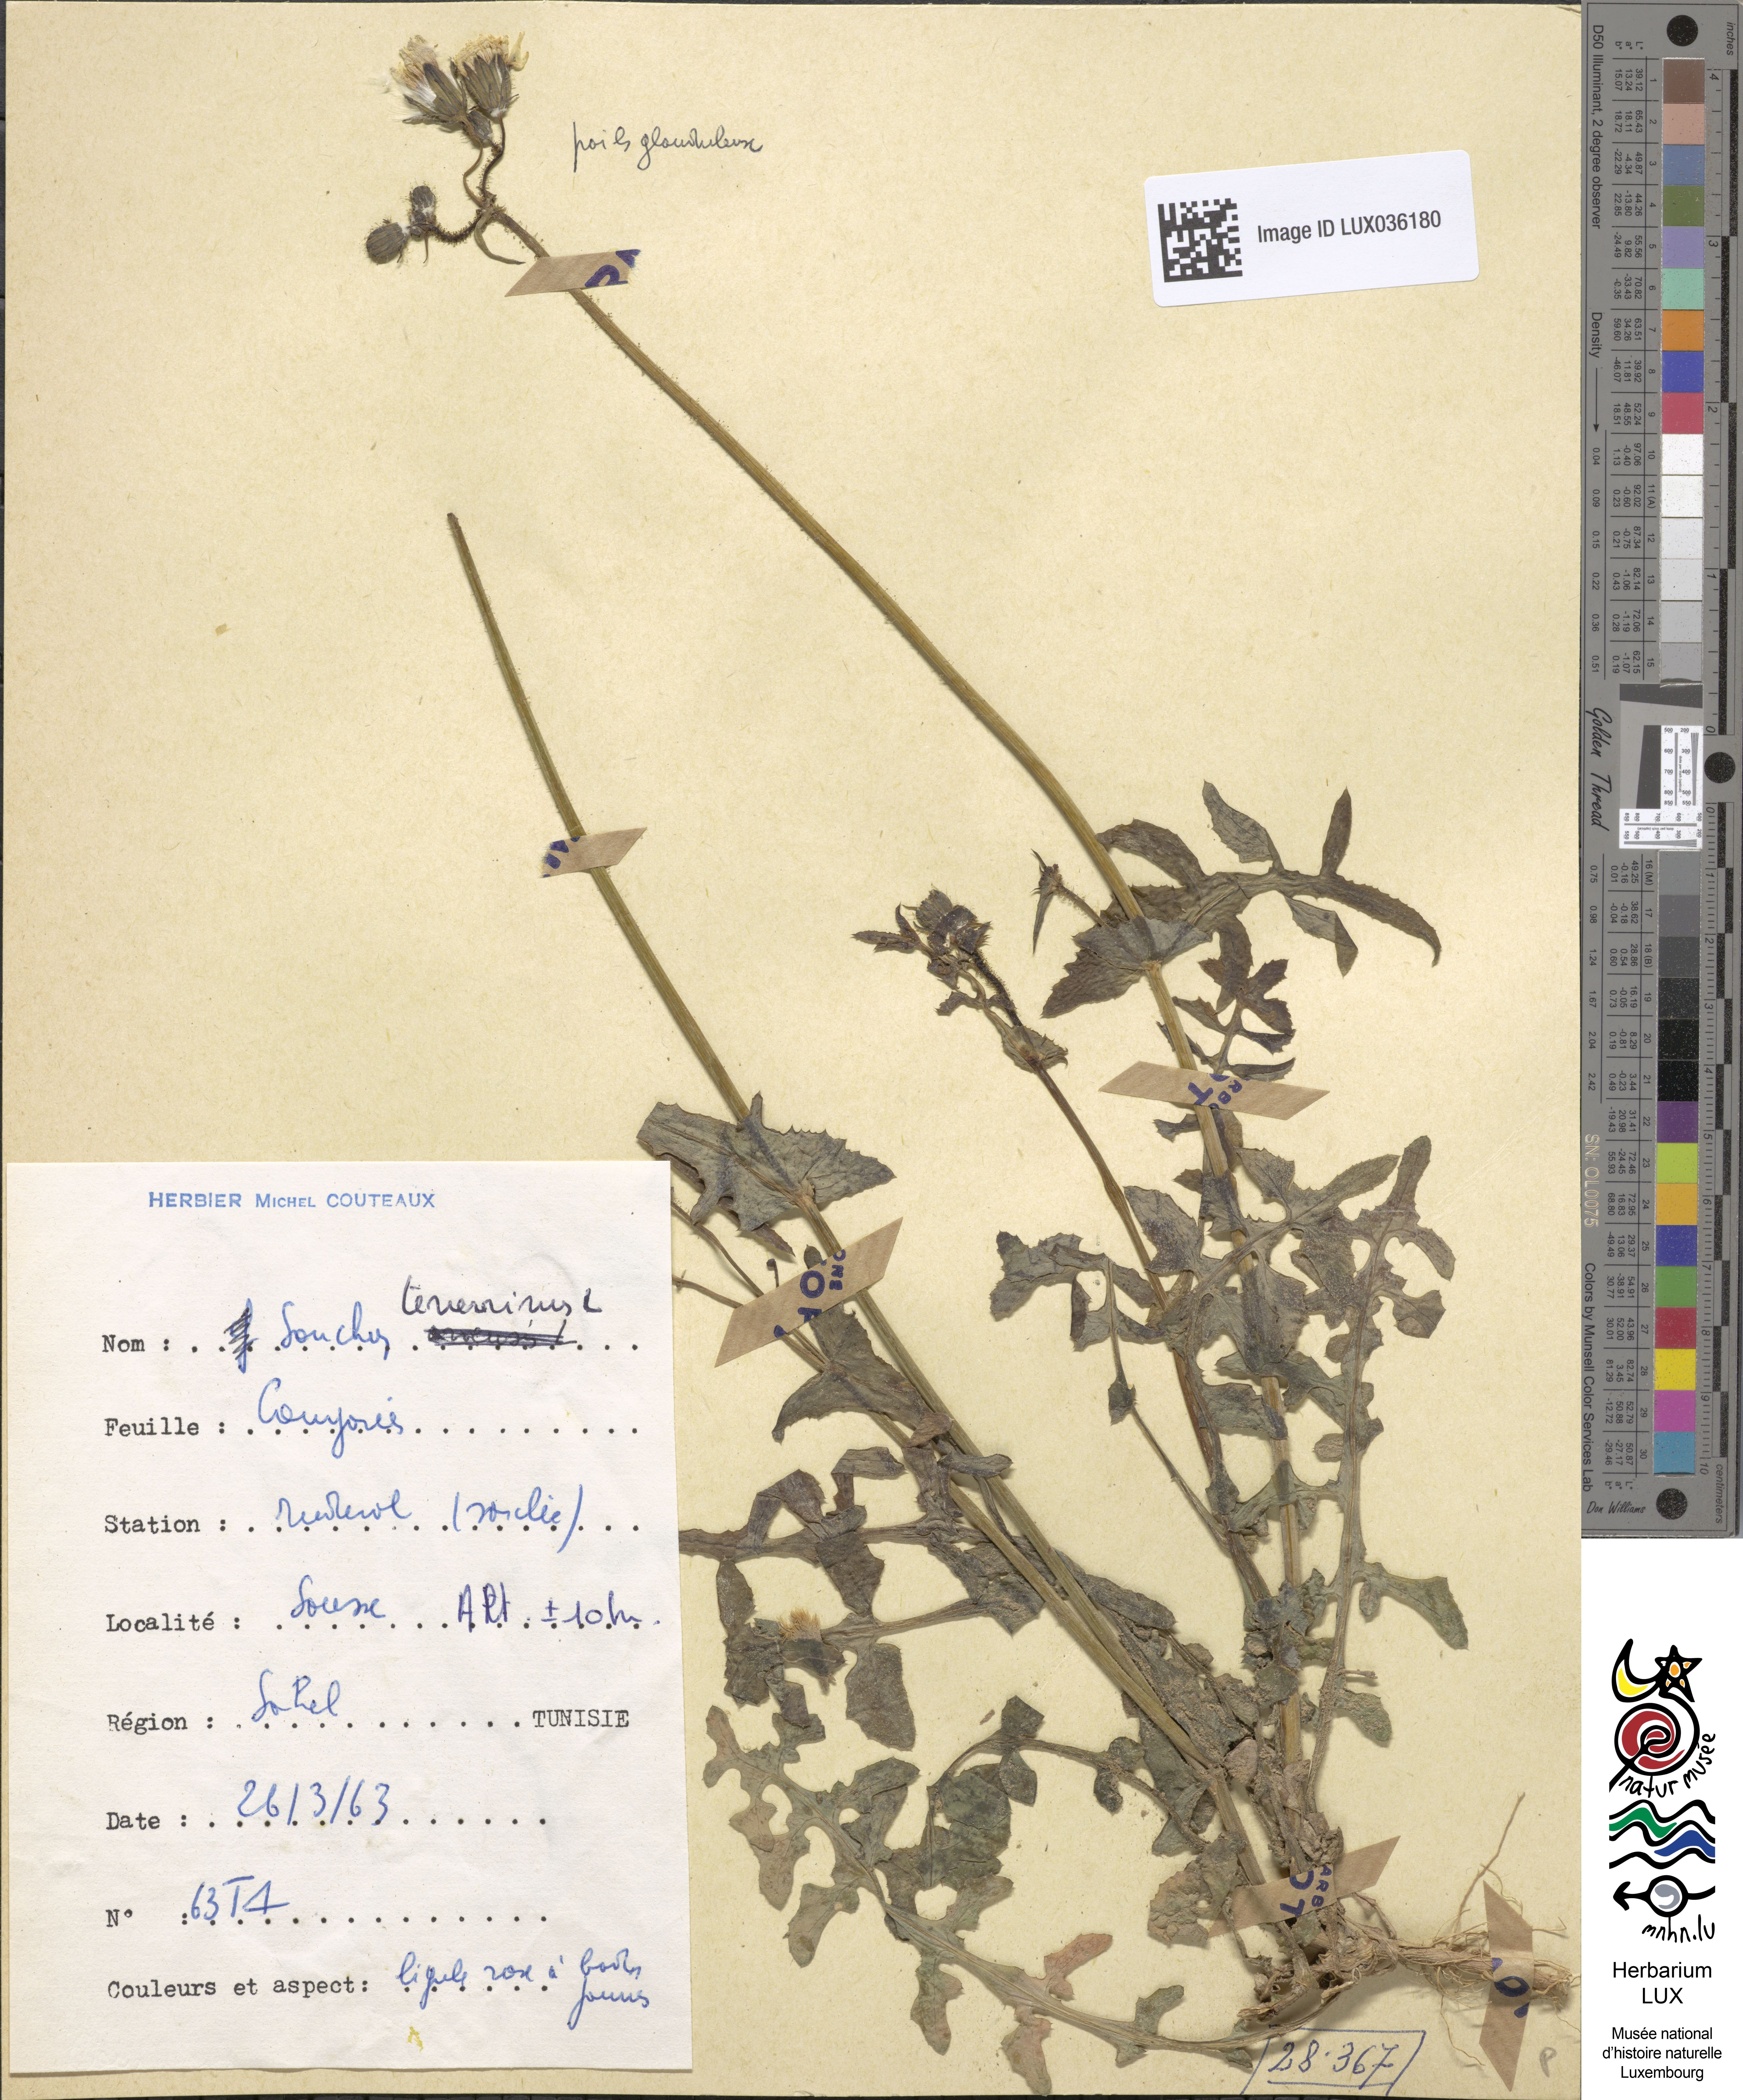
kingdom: Plantae
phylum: Tracheophyta
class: Magnoliopsida
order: Asterales
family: Asteraceae
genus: Sonchus
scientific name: Sonchus tenerrimus
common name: Clammy sowthistle
